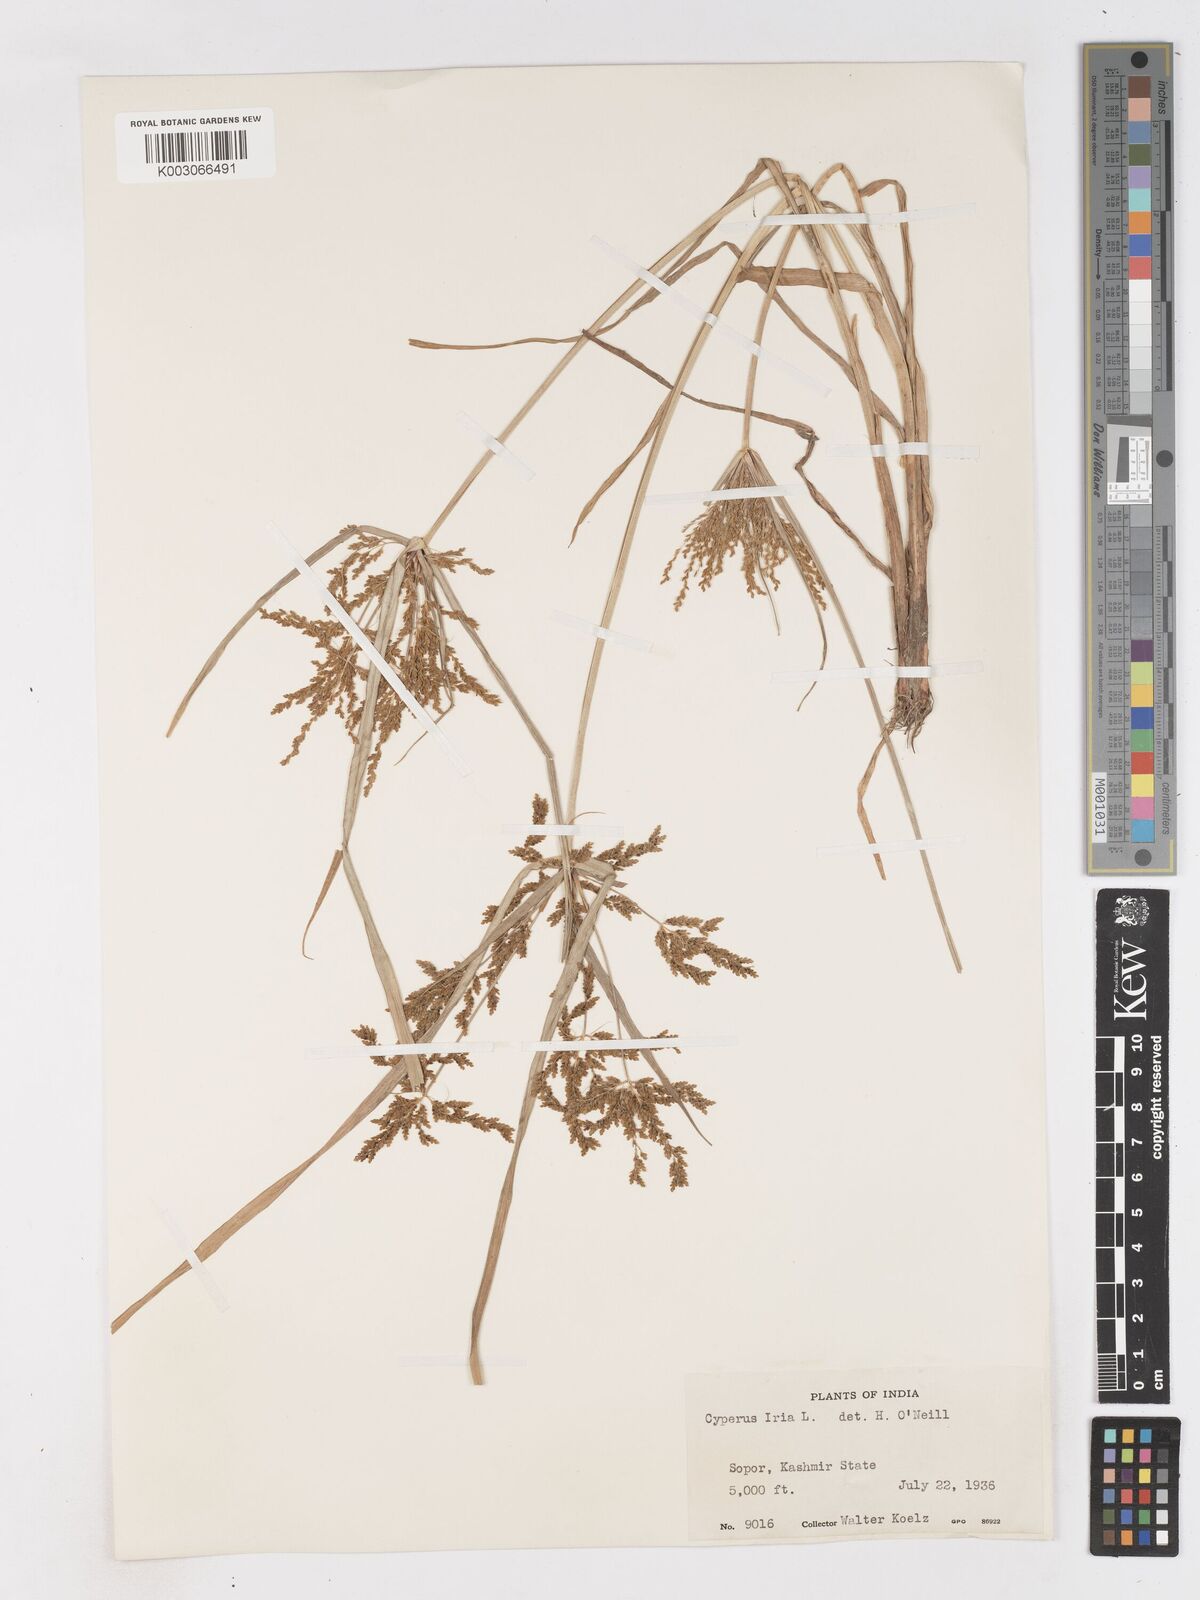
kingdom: Plantae
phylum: Tracheophyta
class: Liliopsida
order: Poales
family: Cyperaceae
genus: Cyperus
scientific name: Cyperus iria
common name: Ricefield flatsedge
